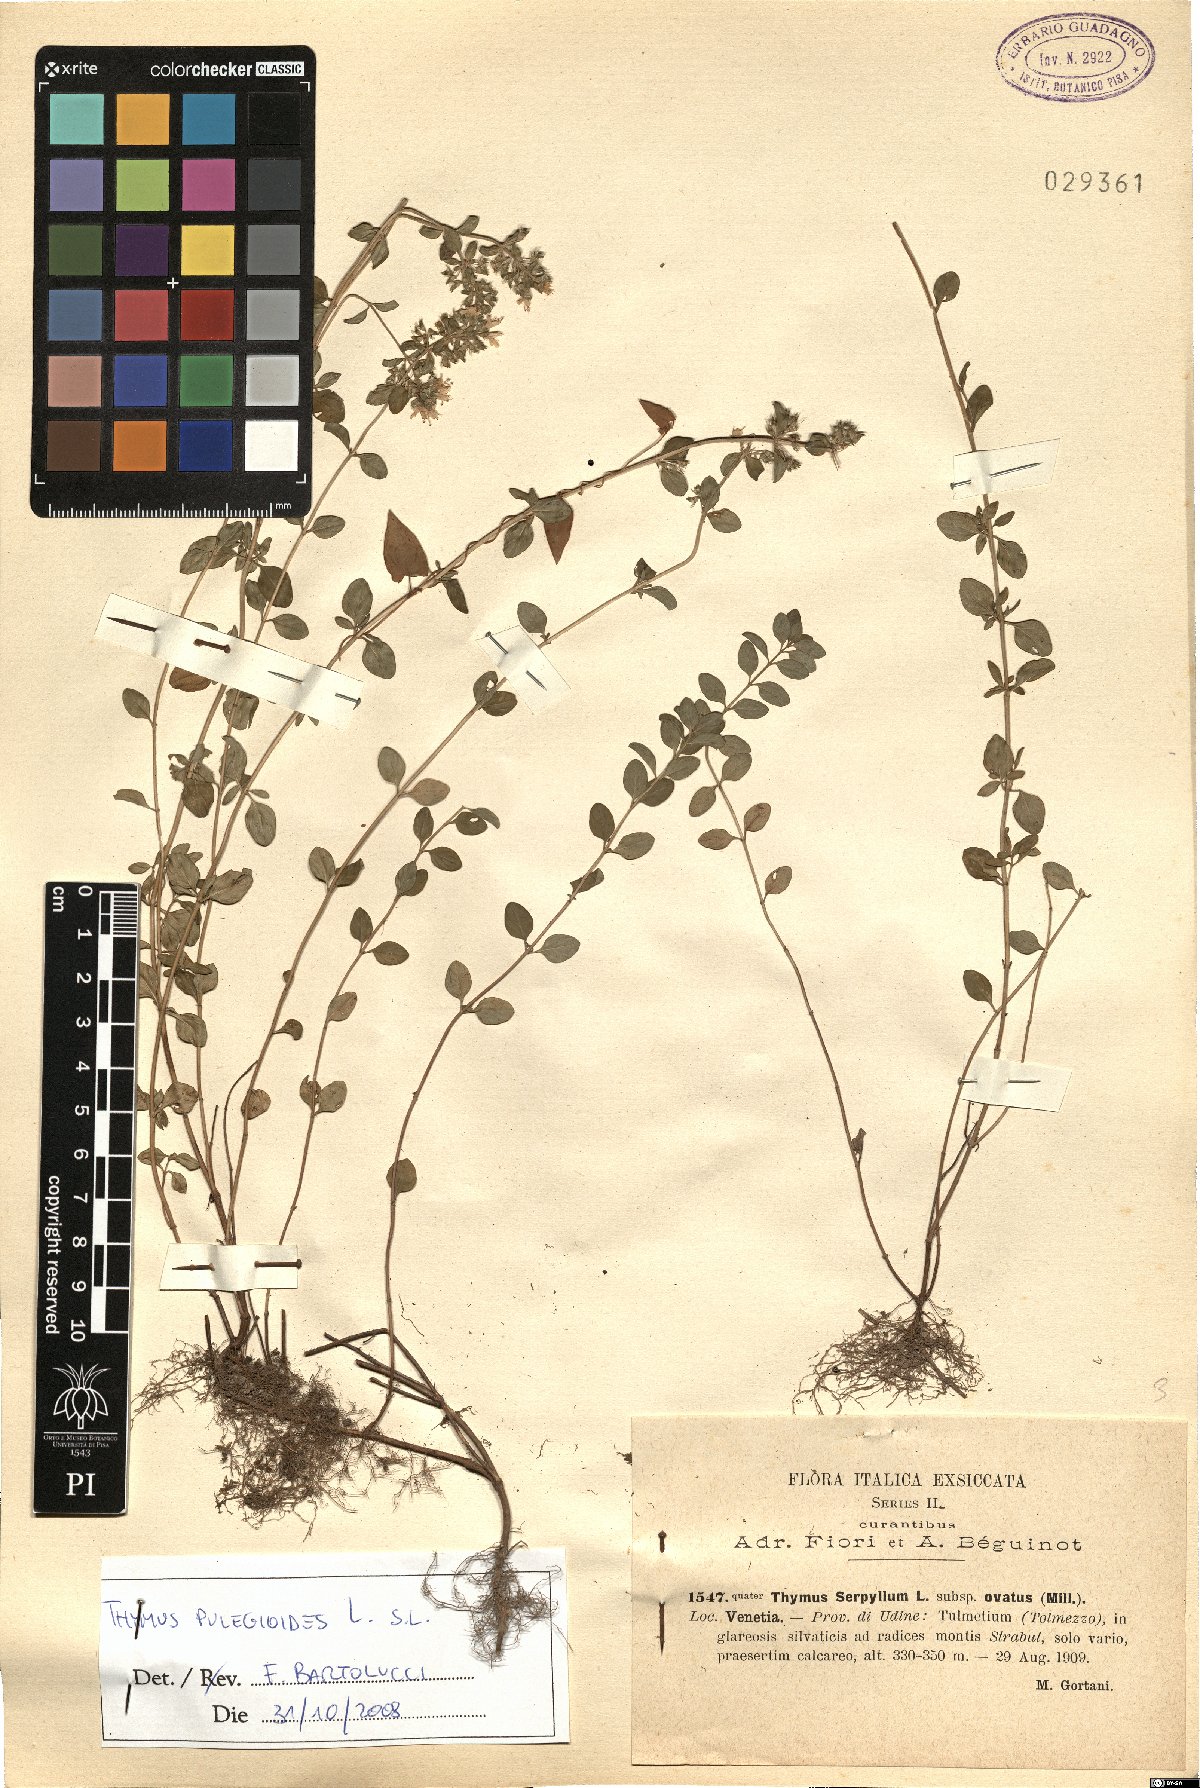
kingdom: Plantae
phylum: Tracheophyta
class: Magnoliopsida
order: Lamiales
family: Lamiaceae
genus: Thymus
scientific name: Thymus pulegioides
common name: Large thyme
